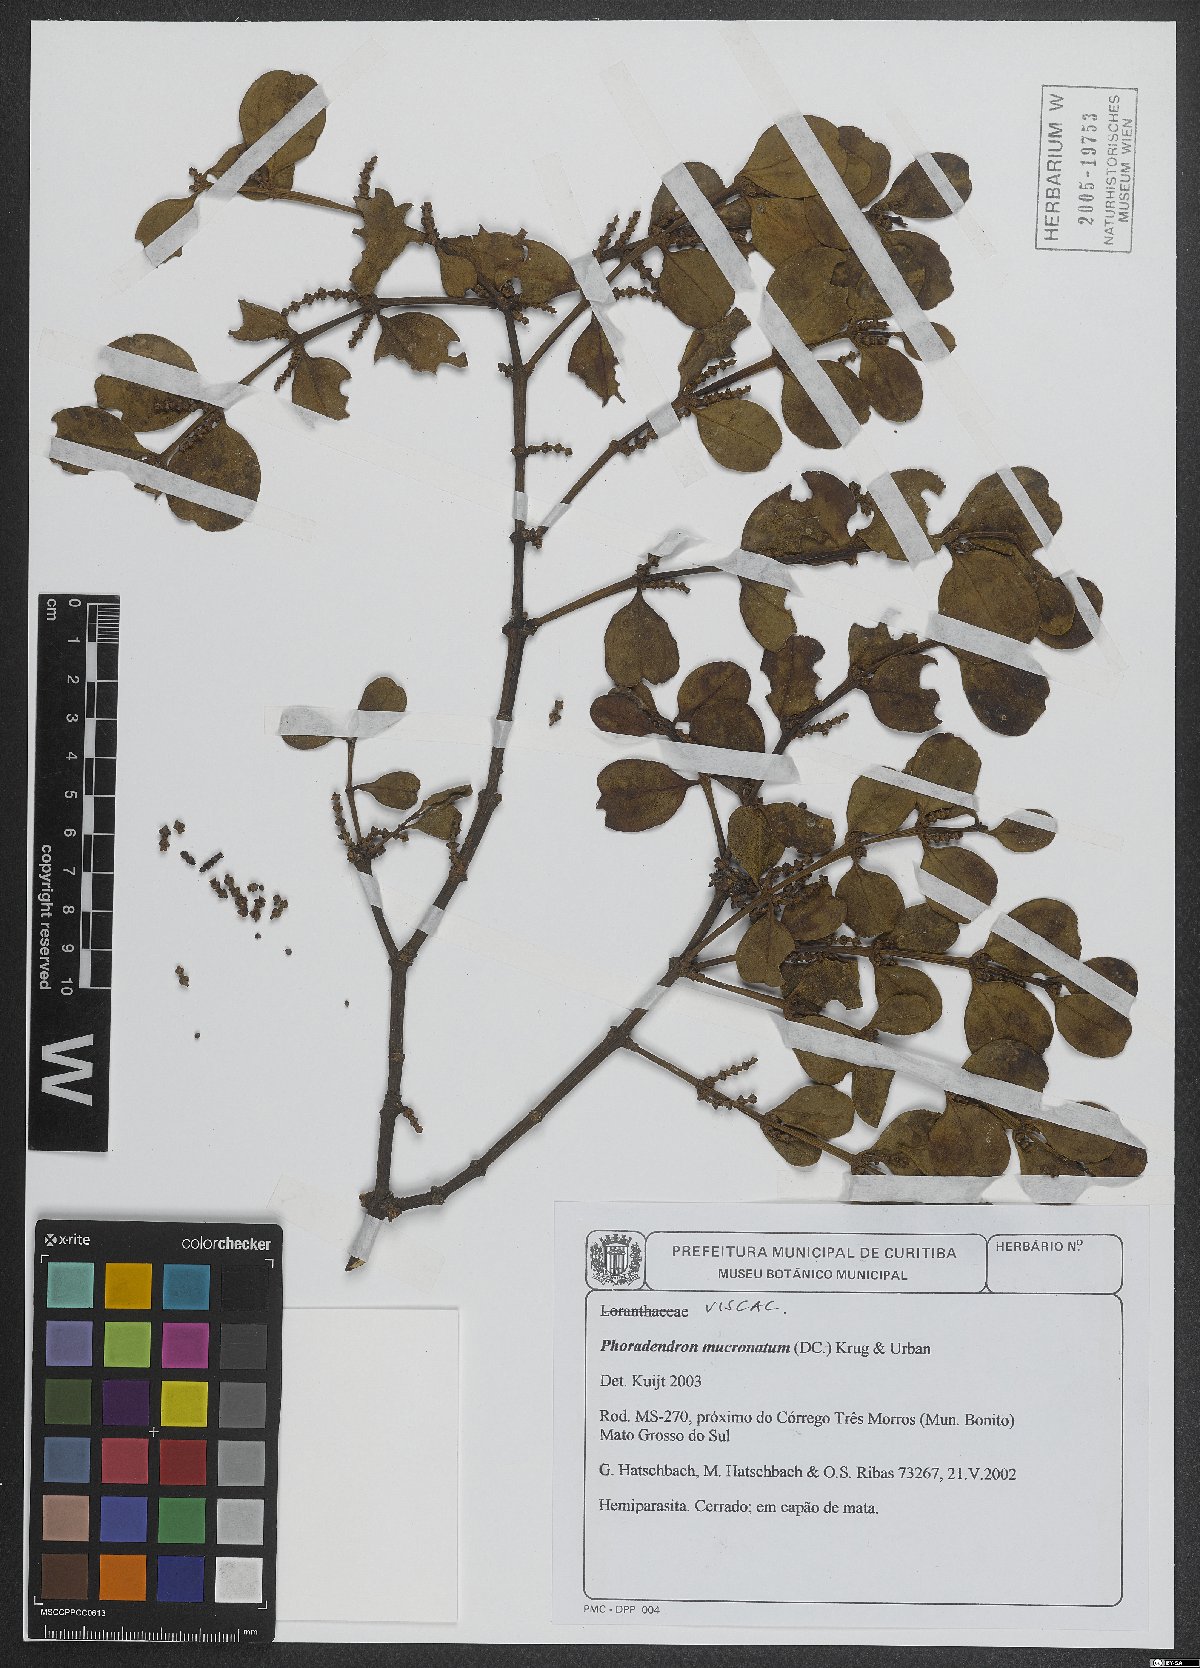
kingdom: Plantae
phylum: Tracheophyta
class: Magnoliopsida
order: Santalales
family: Viscaceae
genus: Phoradendron
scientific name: Phoradendron mucronatum
